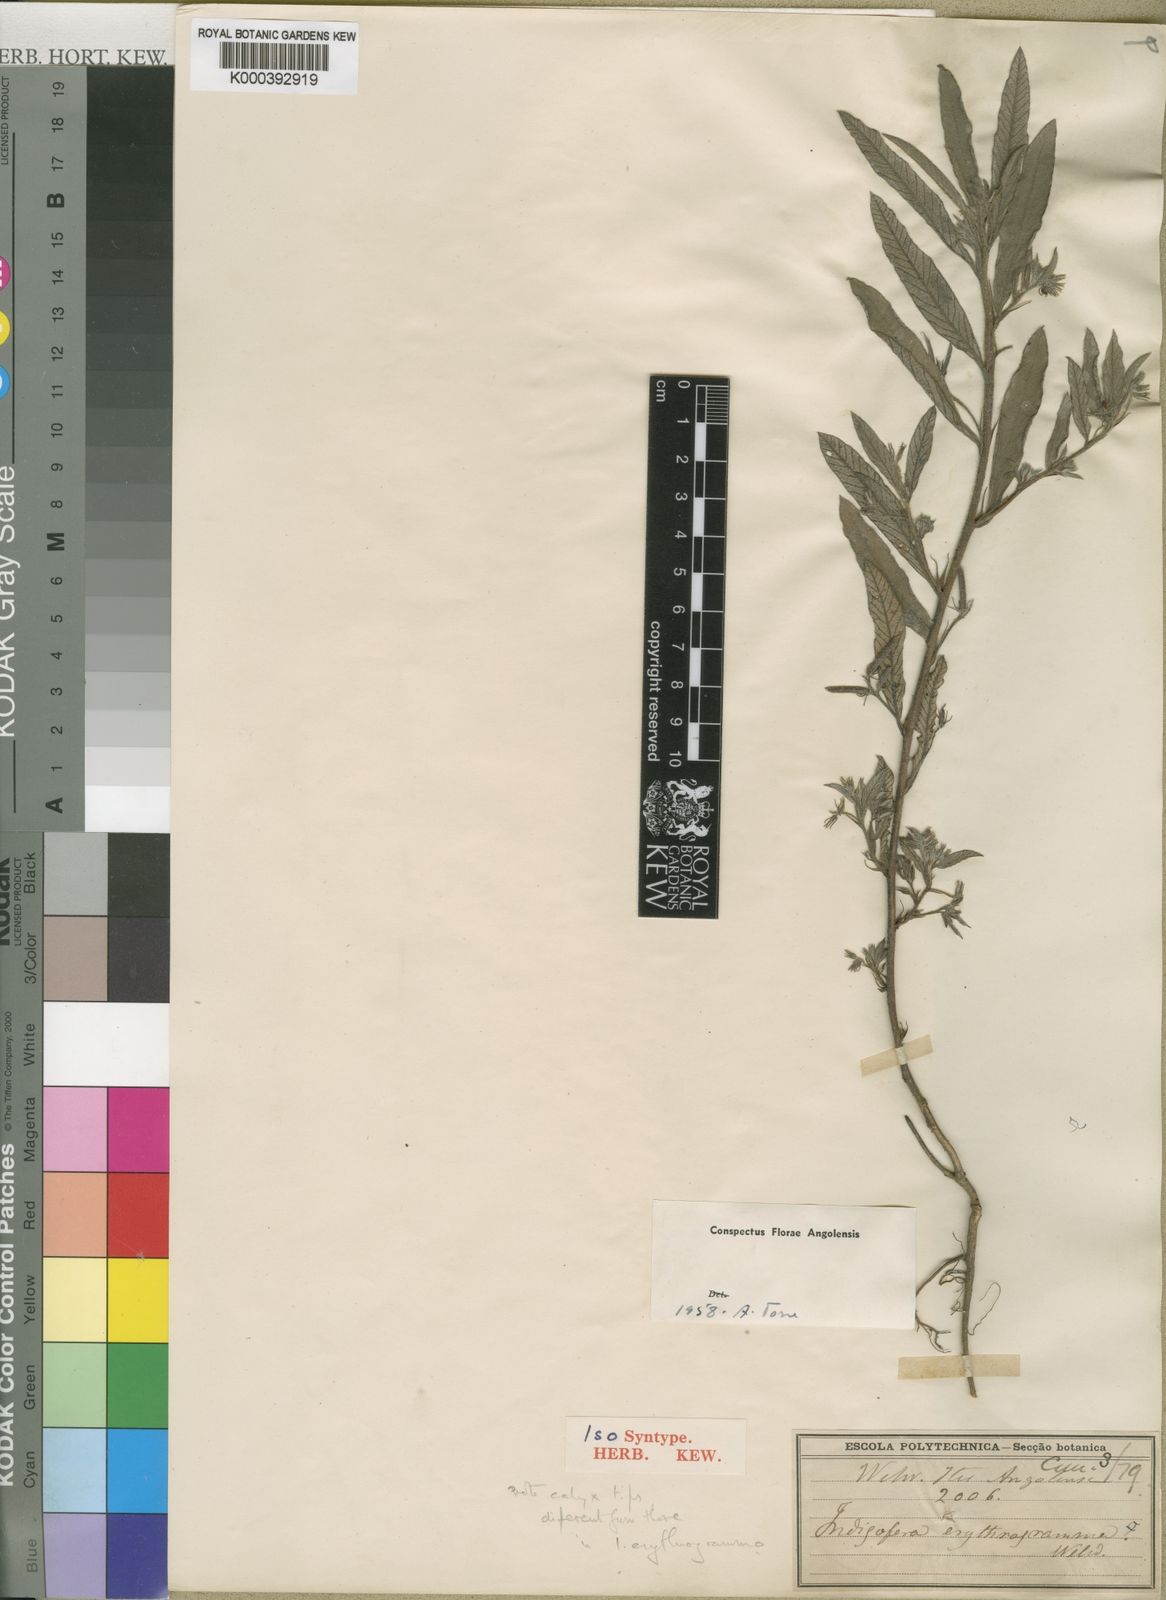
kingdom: Plantae
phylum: Tracheophyta
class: Magnoliopsida
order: Fabales
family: Fabaceae
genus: Indigofera
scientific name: Indigofera erythrogramma
